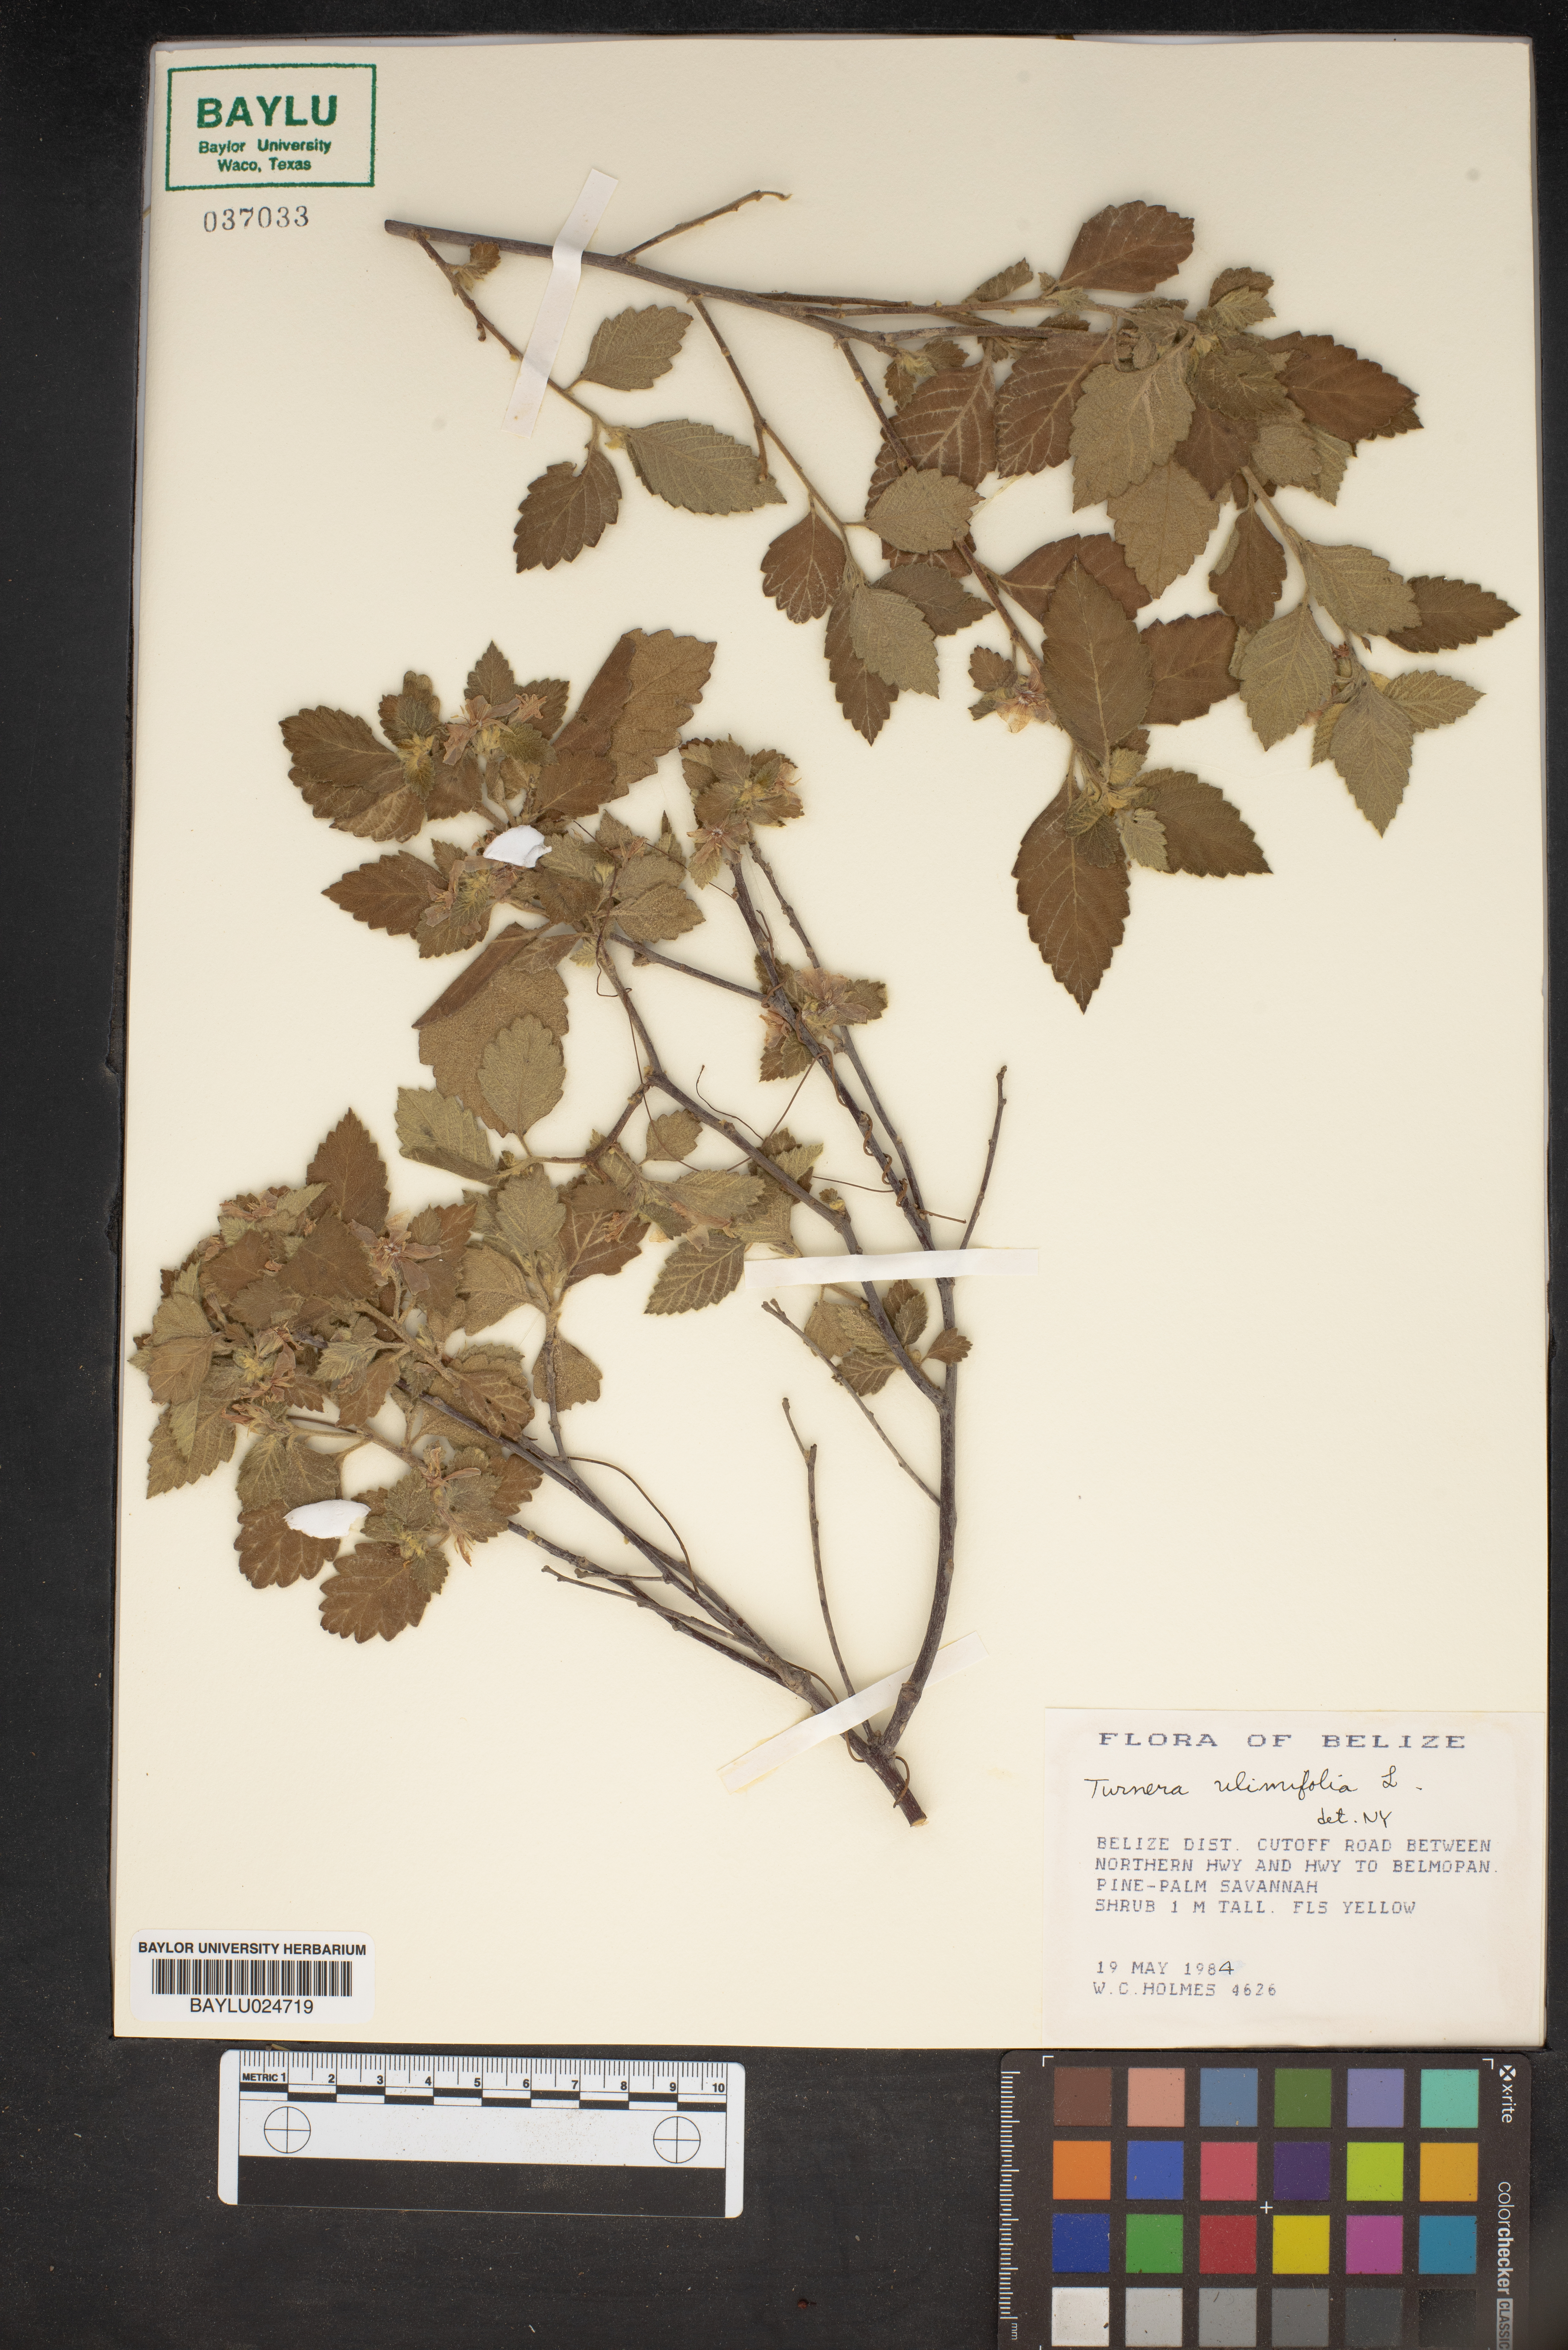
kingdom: Plantae
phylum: Tracheophyta
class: Magnoliopsida
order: Malpighiales
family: Turneraceae
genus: Turnera
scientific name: Turnera ulmifolia
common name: Ramgoat dashalong
